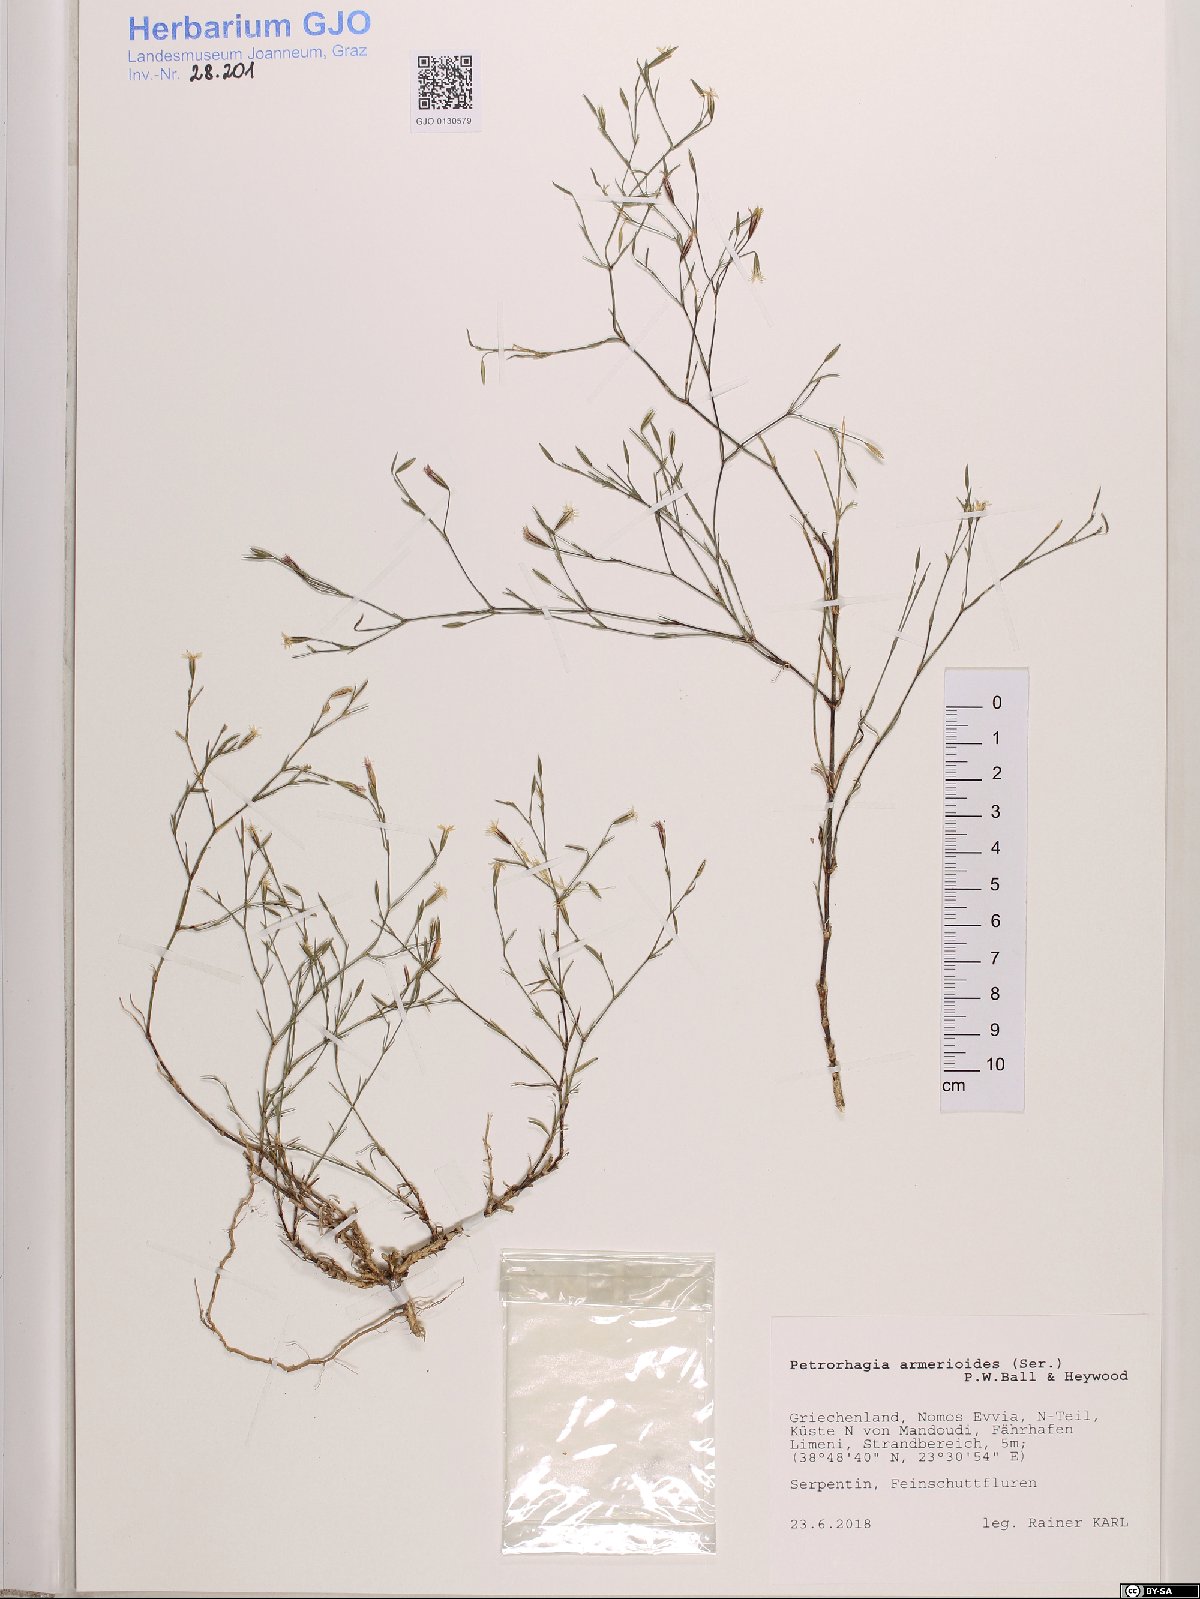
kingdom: Plantae
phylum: Tracheophyta
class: Magnoliopsida
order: Caryophyllales
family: Caryophyllaceae
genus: Dianthus
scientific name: Dianthus tunicoides
